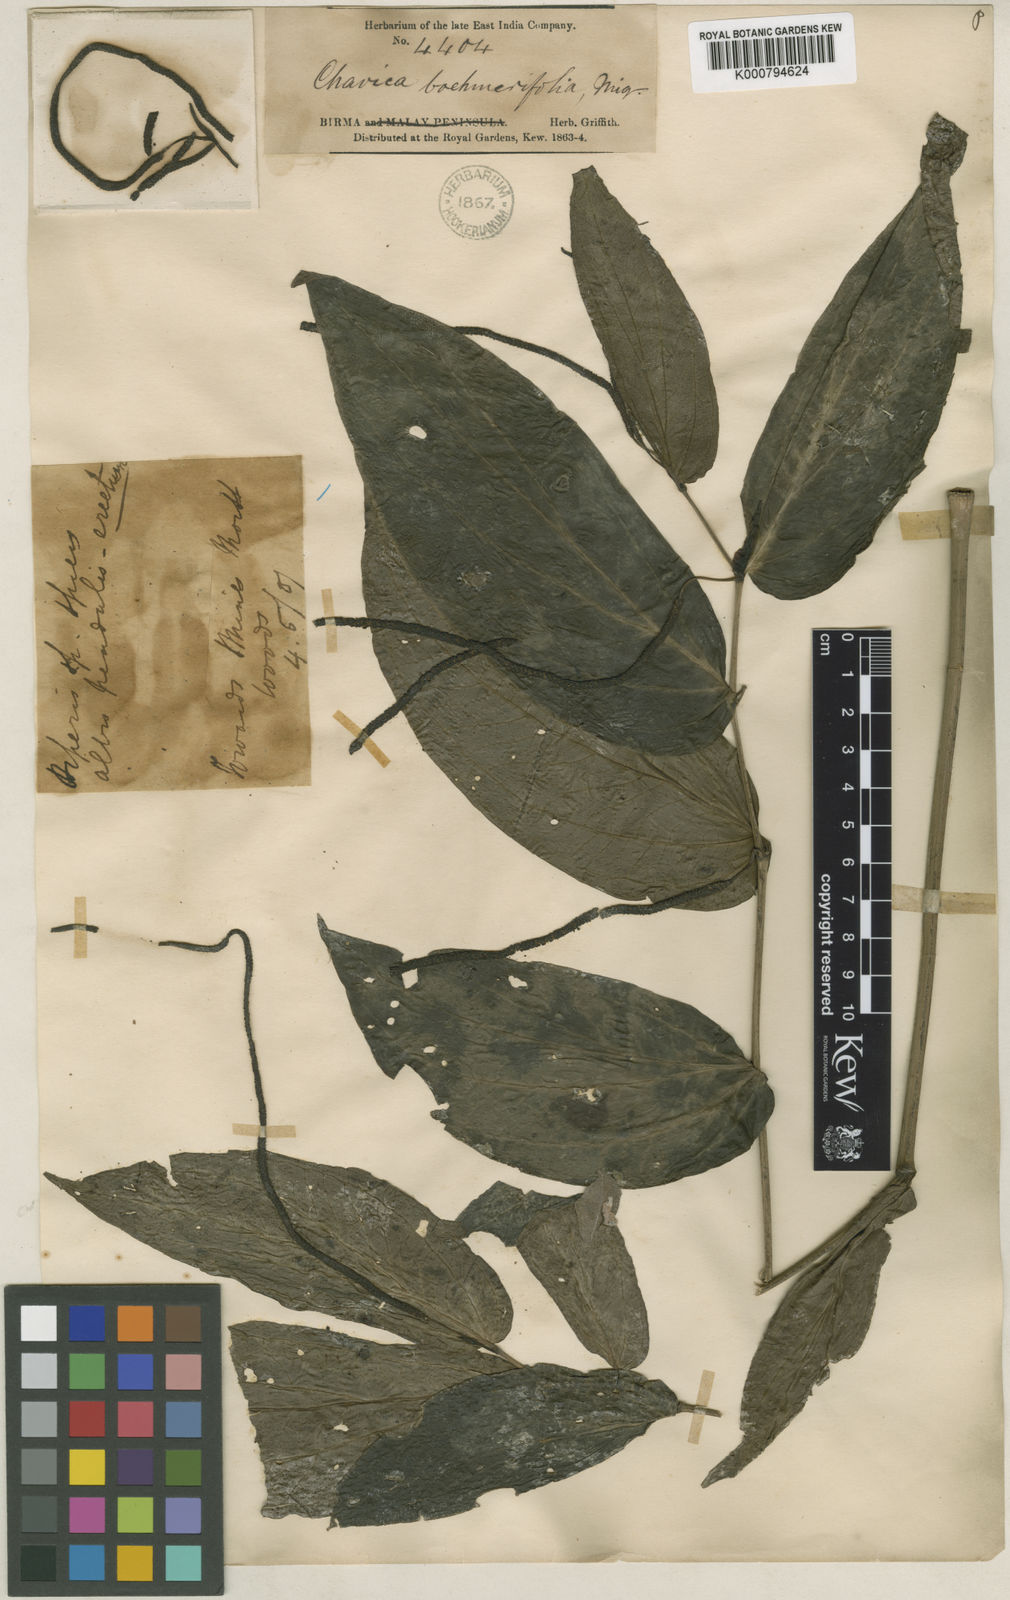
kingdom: Plantae
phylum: Tracheophyta
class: Magnoliopsida
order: Piperales
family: Piperaceae
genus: Piper
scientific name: Piper boehmeriifolium
